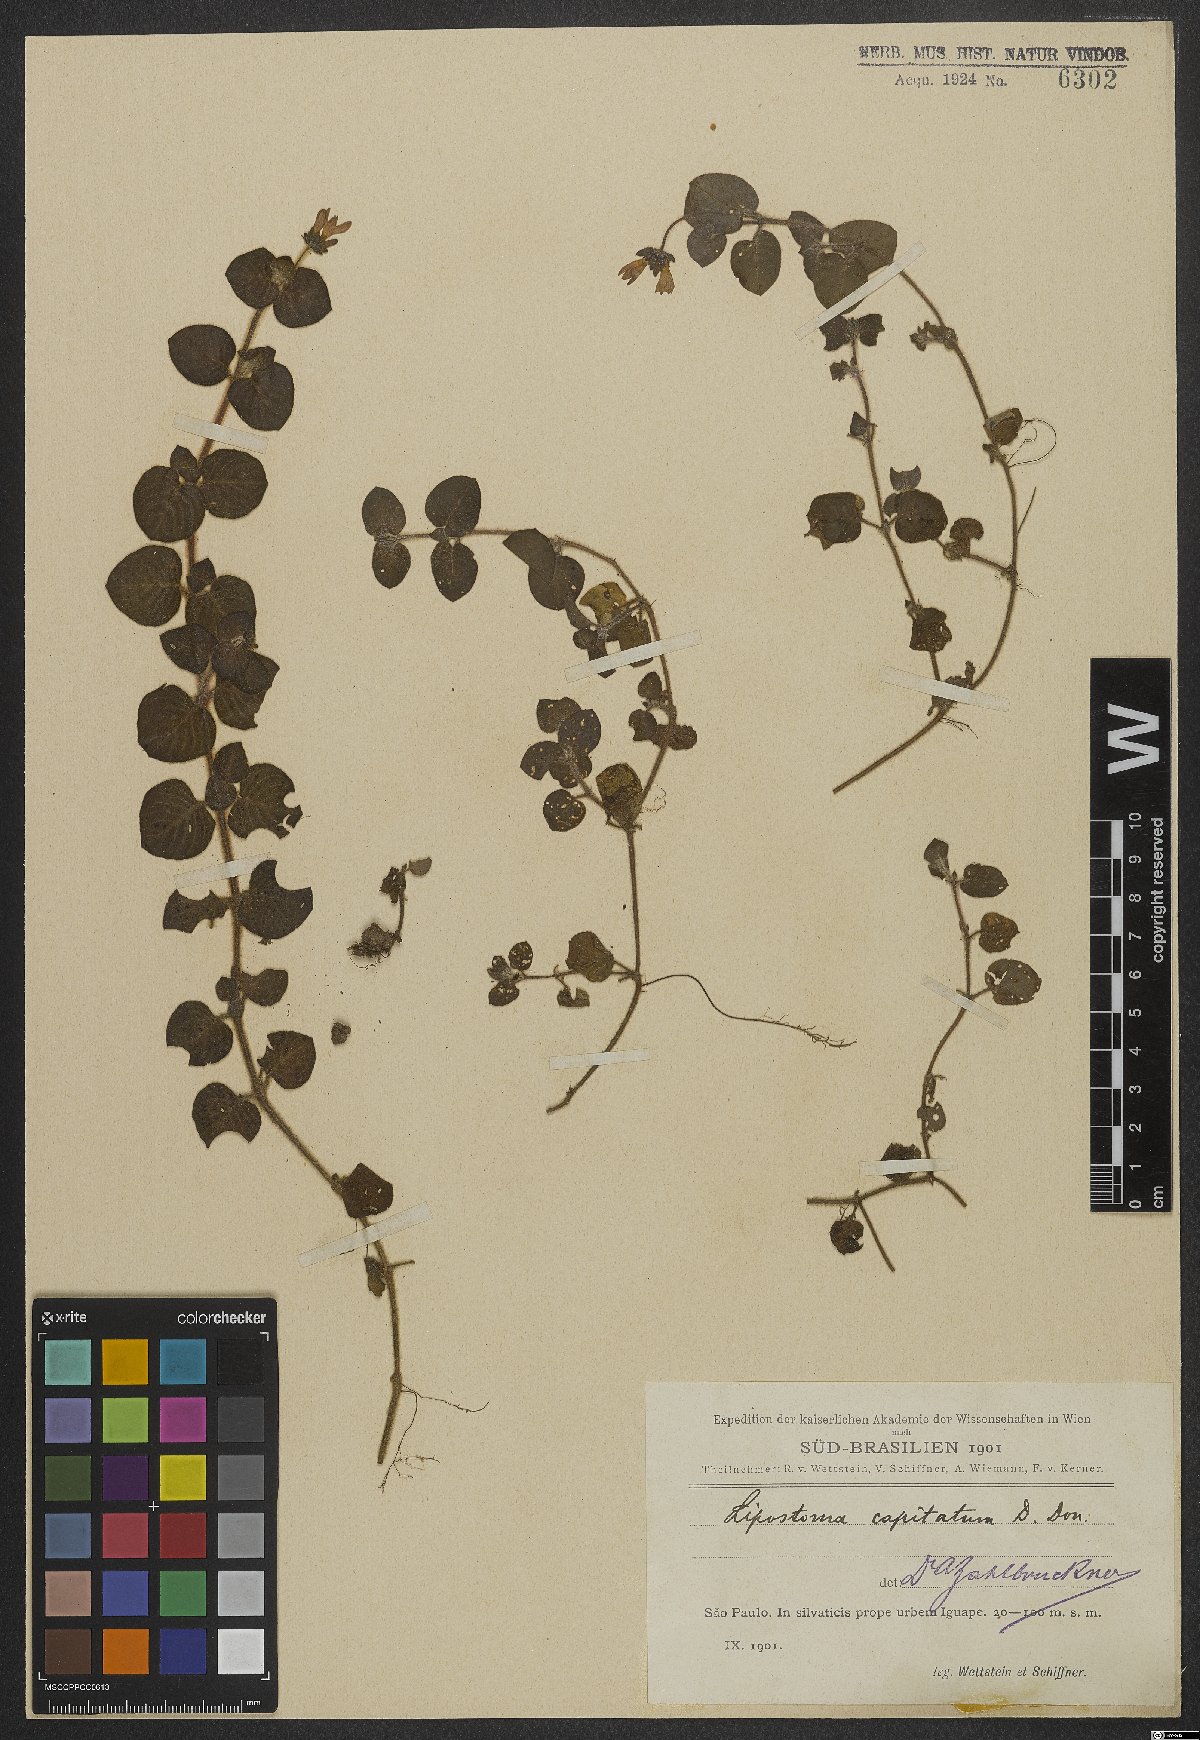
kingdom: Plantae
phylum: Tracheophyta
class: Magnoliopsida
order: Gentianales
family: Rubiaceae
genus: Coccocypselum
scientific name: Coccocypselum capitatum
